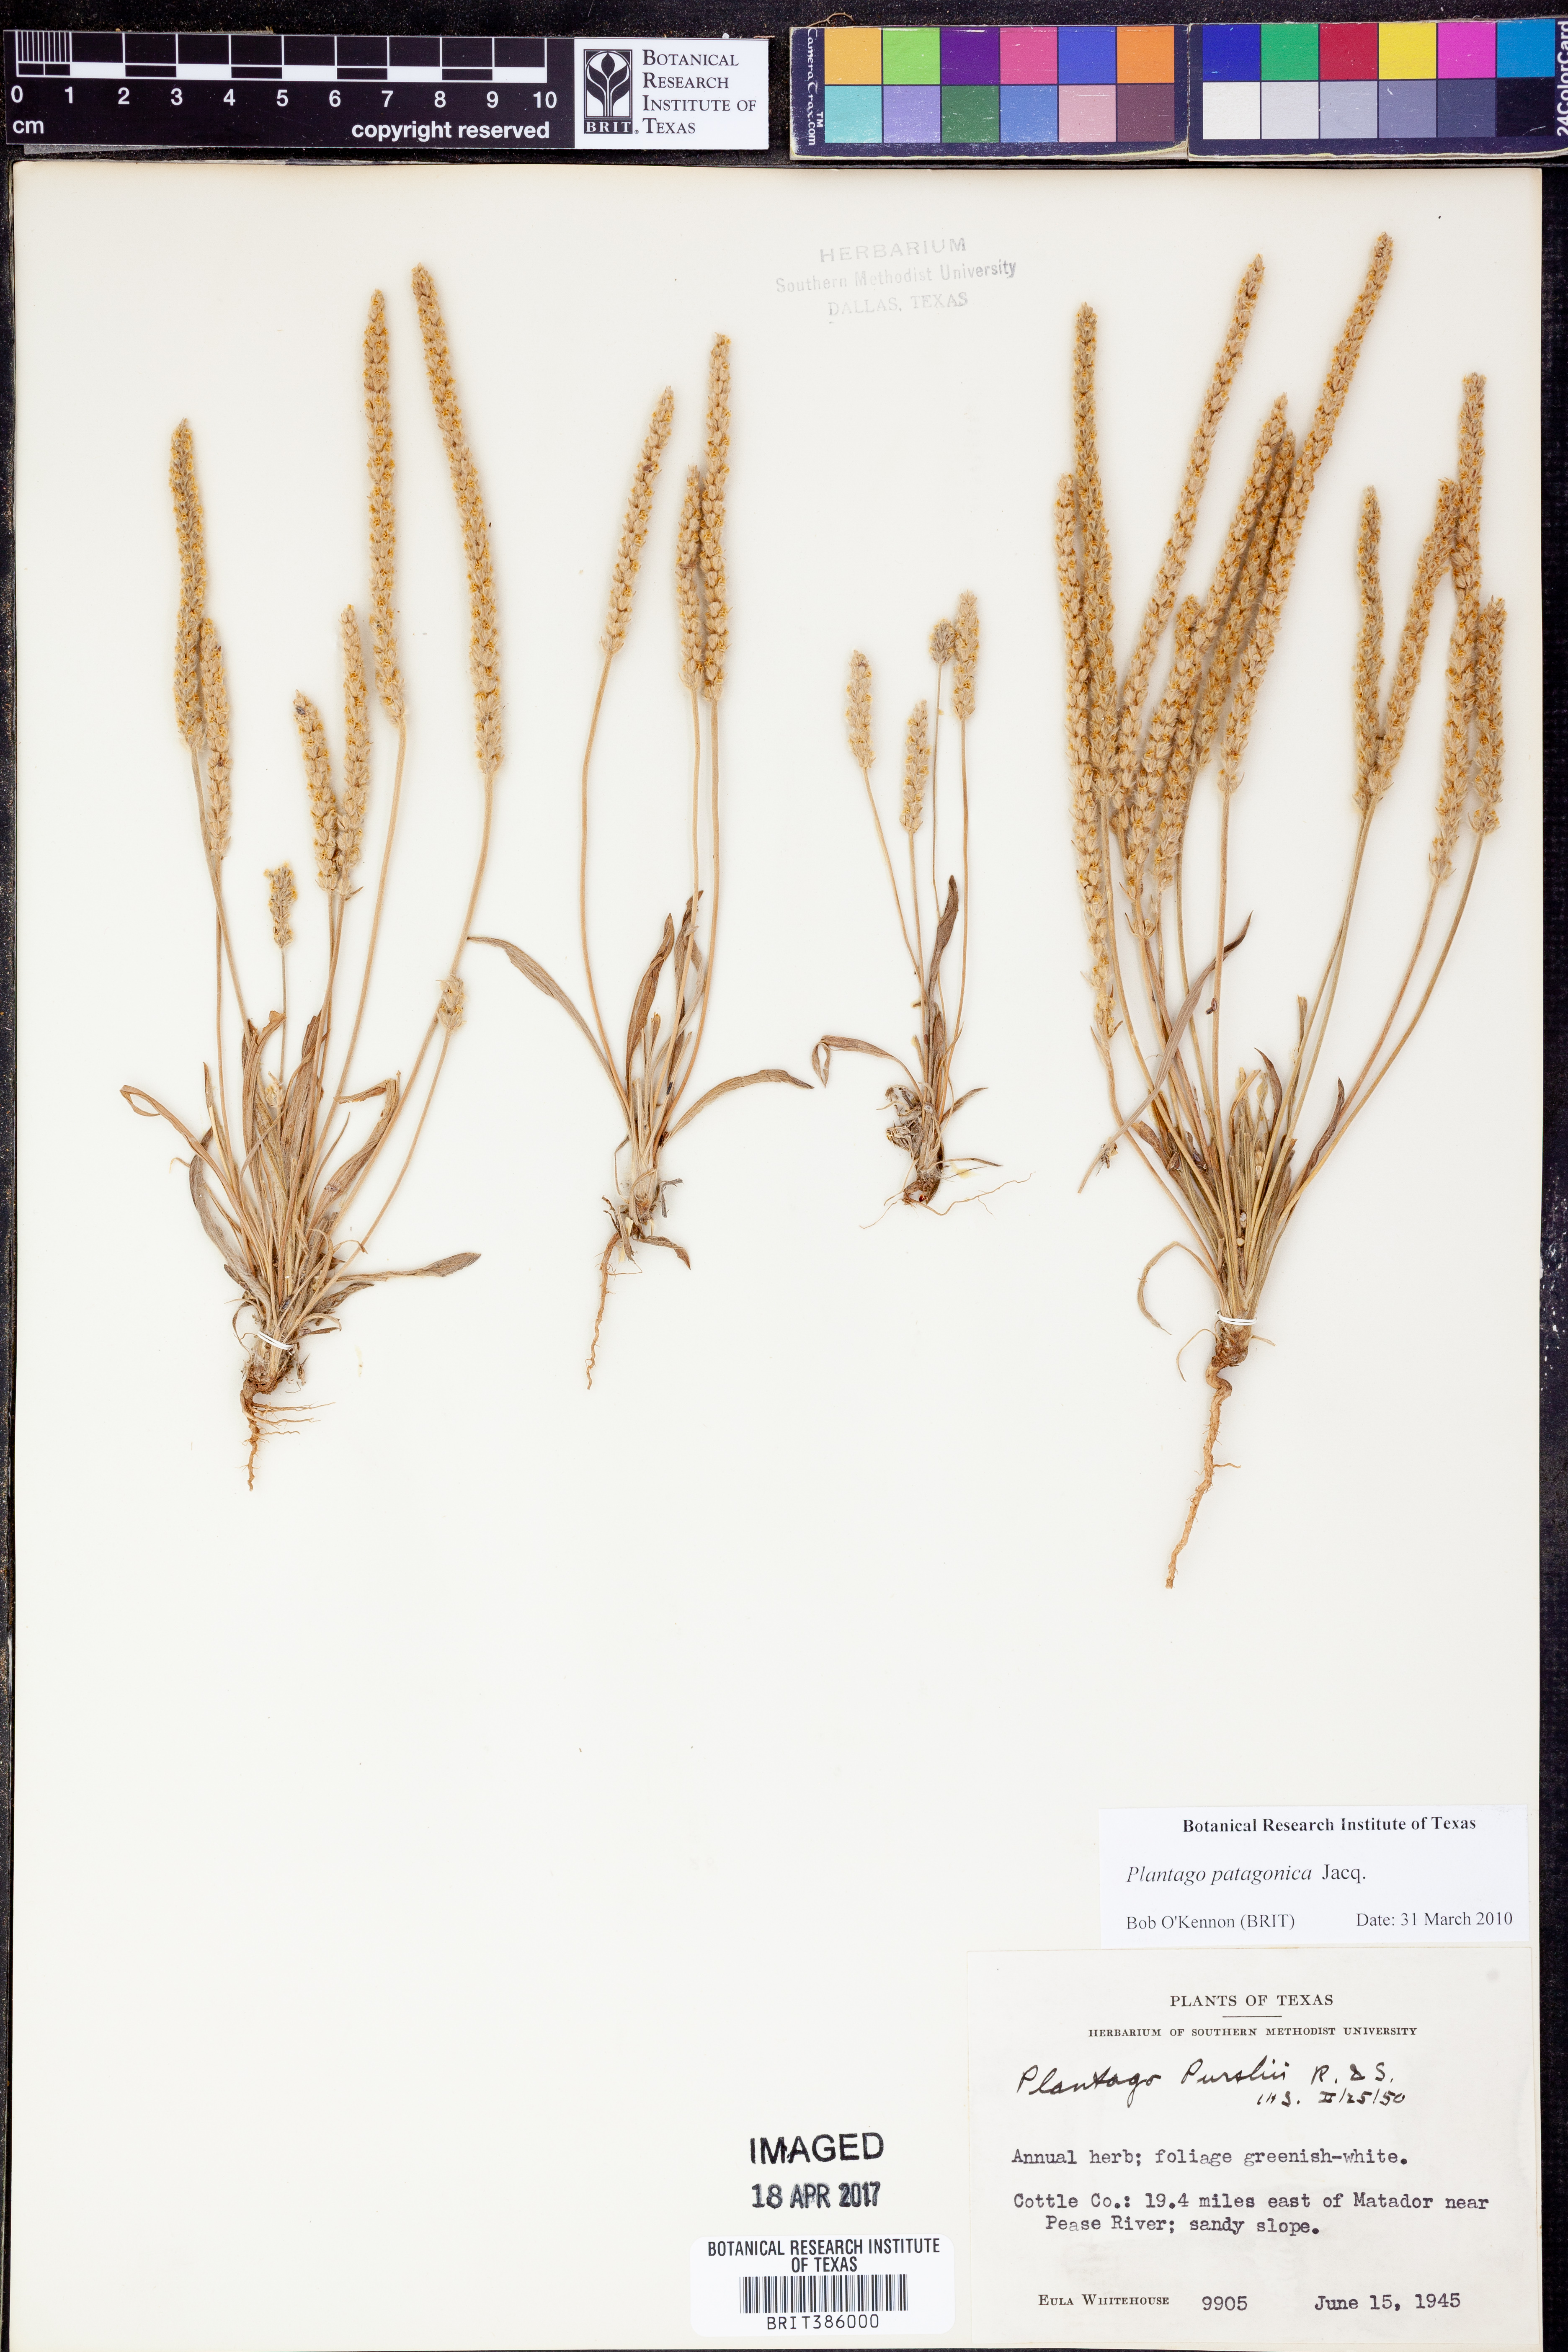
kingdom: Plantae
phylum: Tracheophyta
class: Magnoliopsida
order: Lamiales
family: Plantaginaceae
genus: Plantago
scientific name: Plantago patagonica
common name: Patagonia indian-wheat
